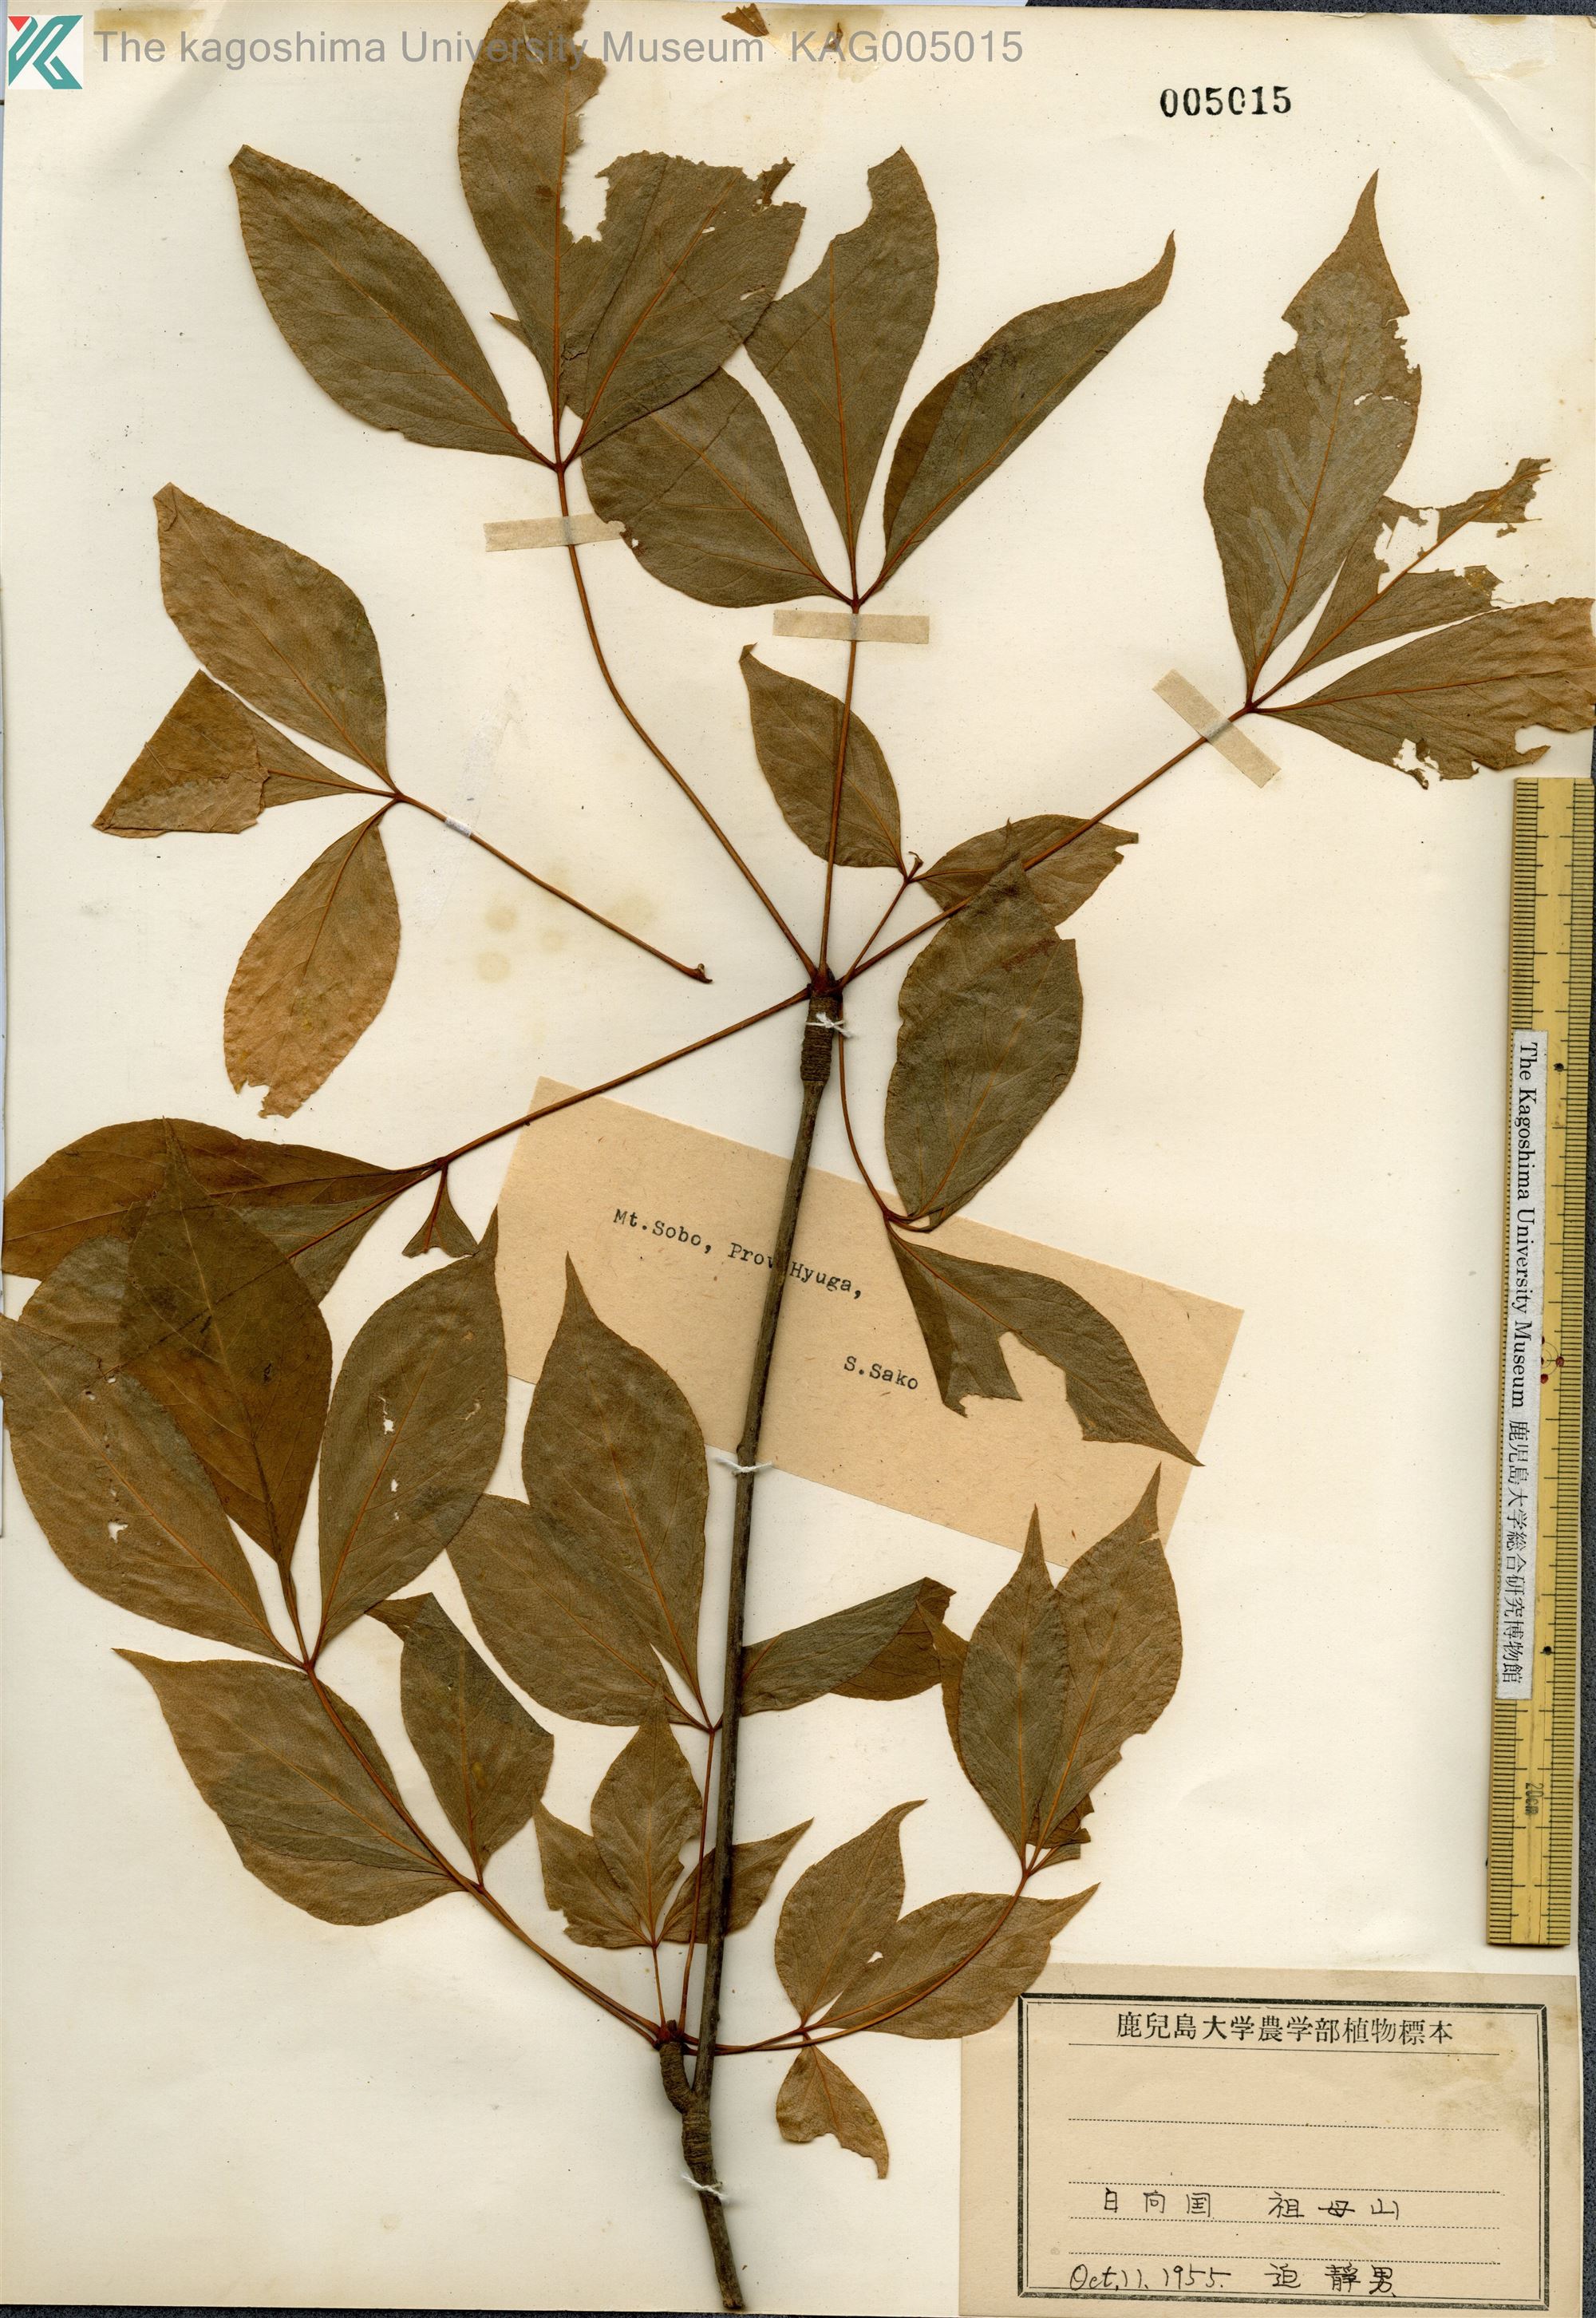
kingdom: Plantae
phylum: Tracheophyta
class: Magnoliopsida
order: Apiales
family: Araliaceae
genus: Gamblea
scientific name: Gamblea innovans
